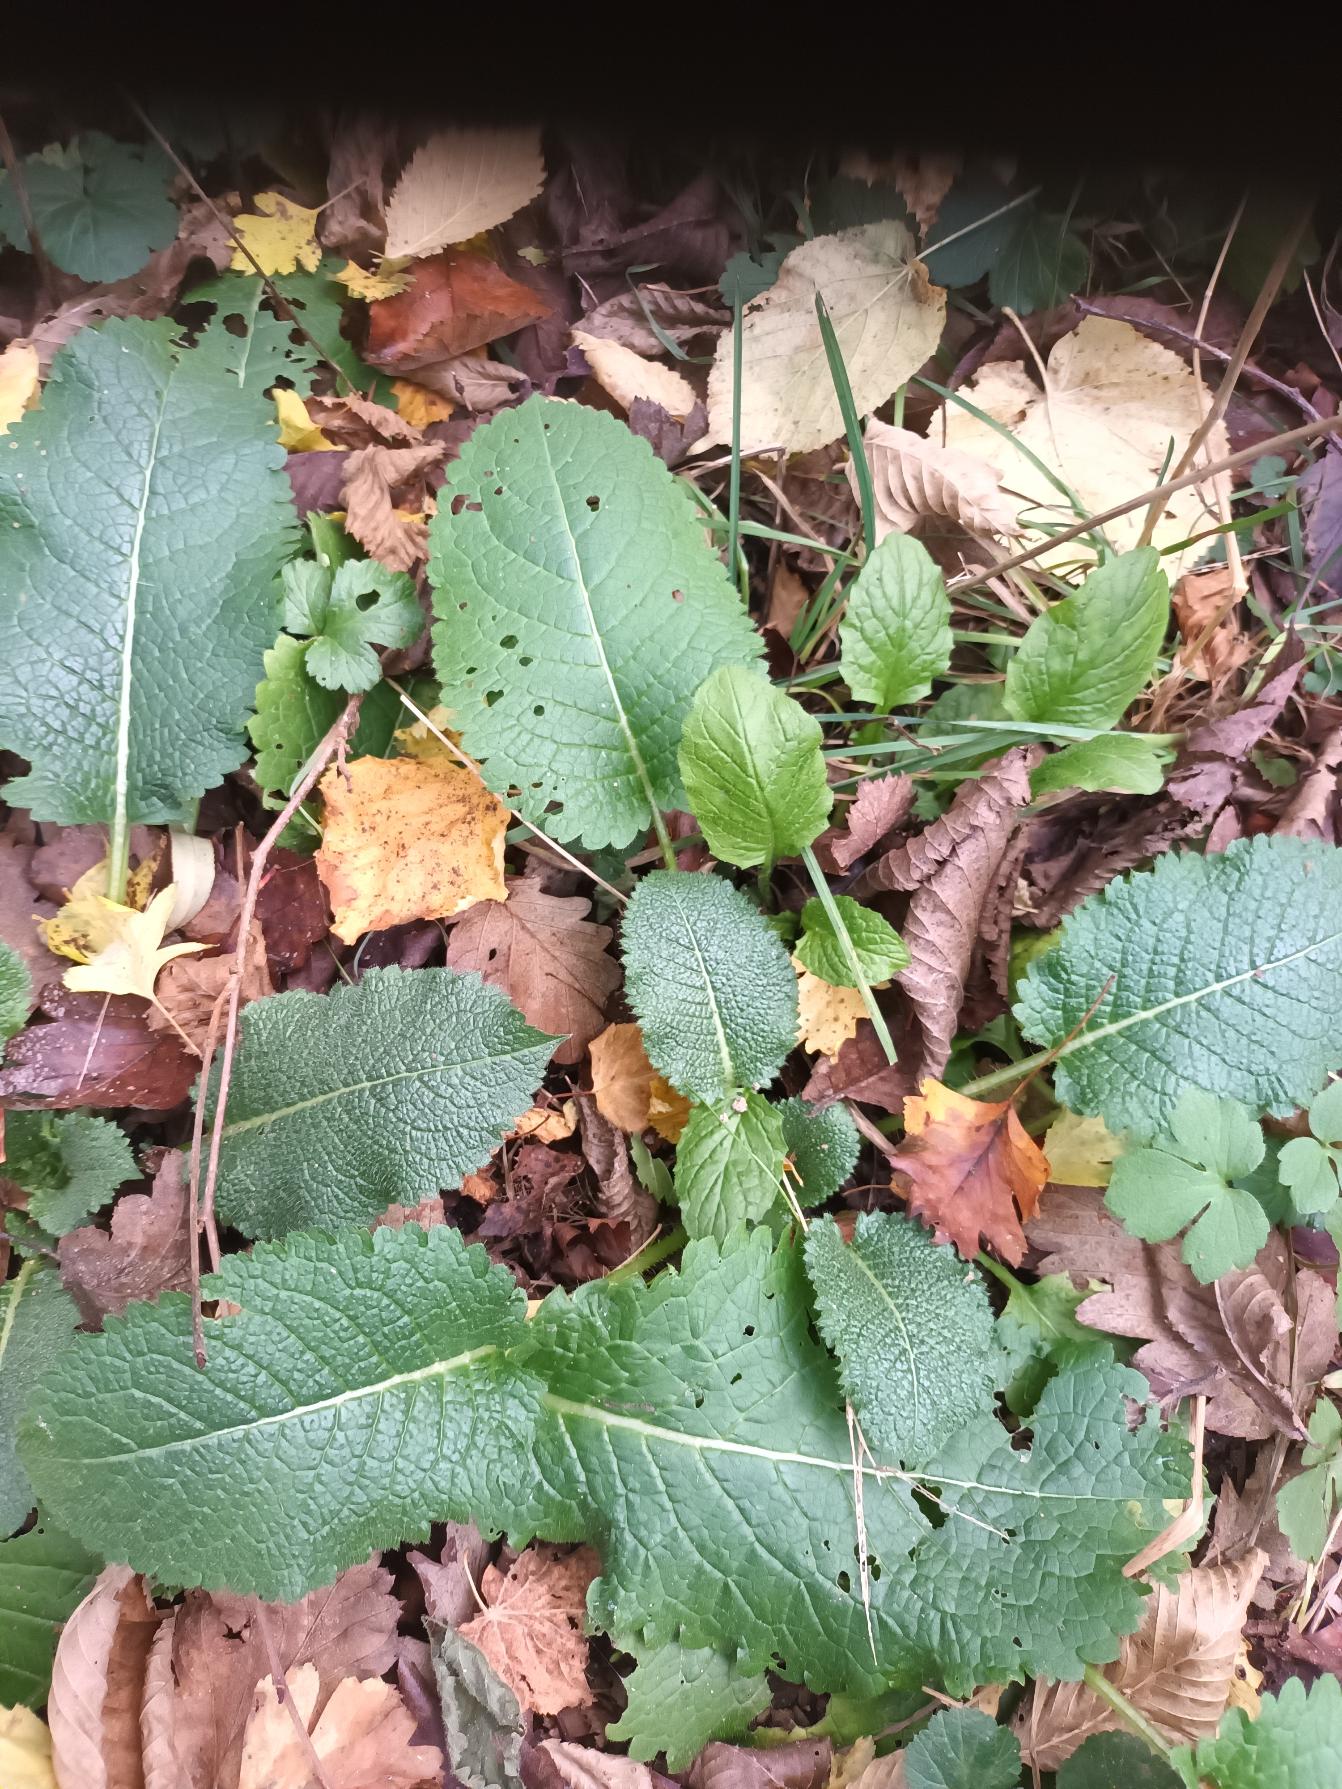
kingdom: Plantae
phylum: Tracheophyta
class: Magnoliopsida
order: Dipsacales
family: Caprifoliaceae
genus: Dipsacus
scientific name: Dipsacus strigosus
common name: Pindsvin-kartebolle
